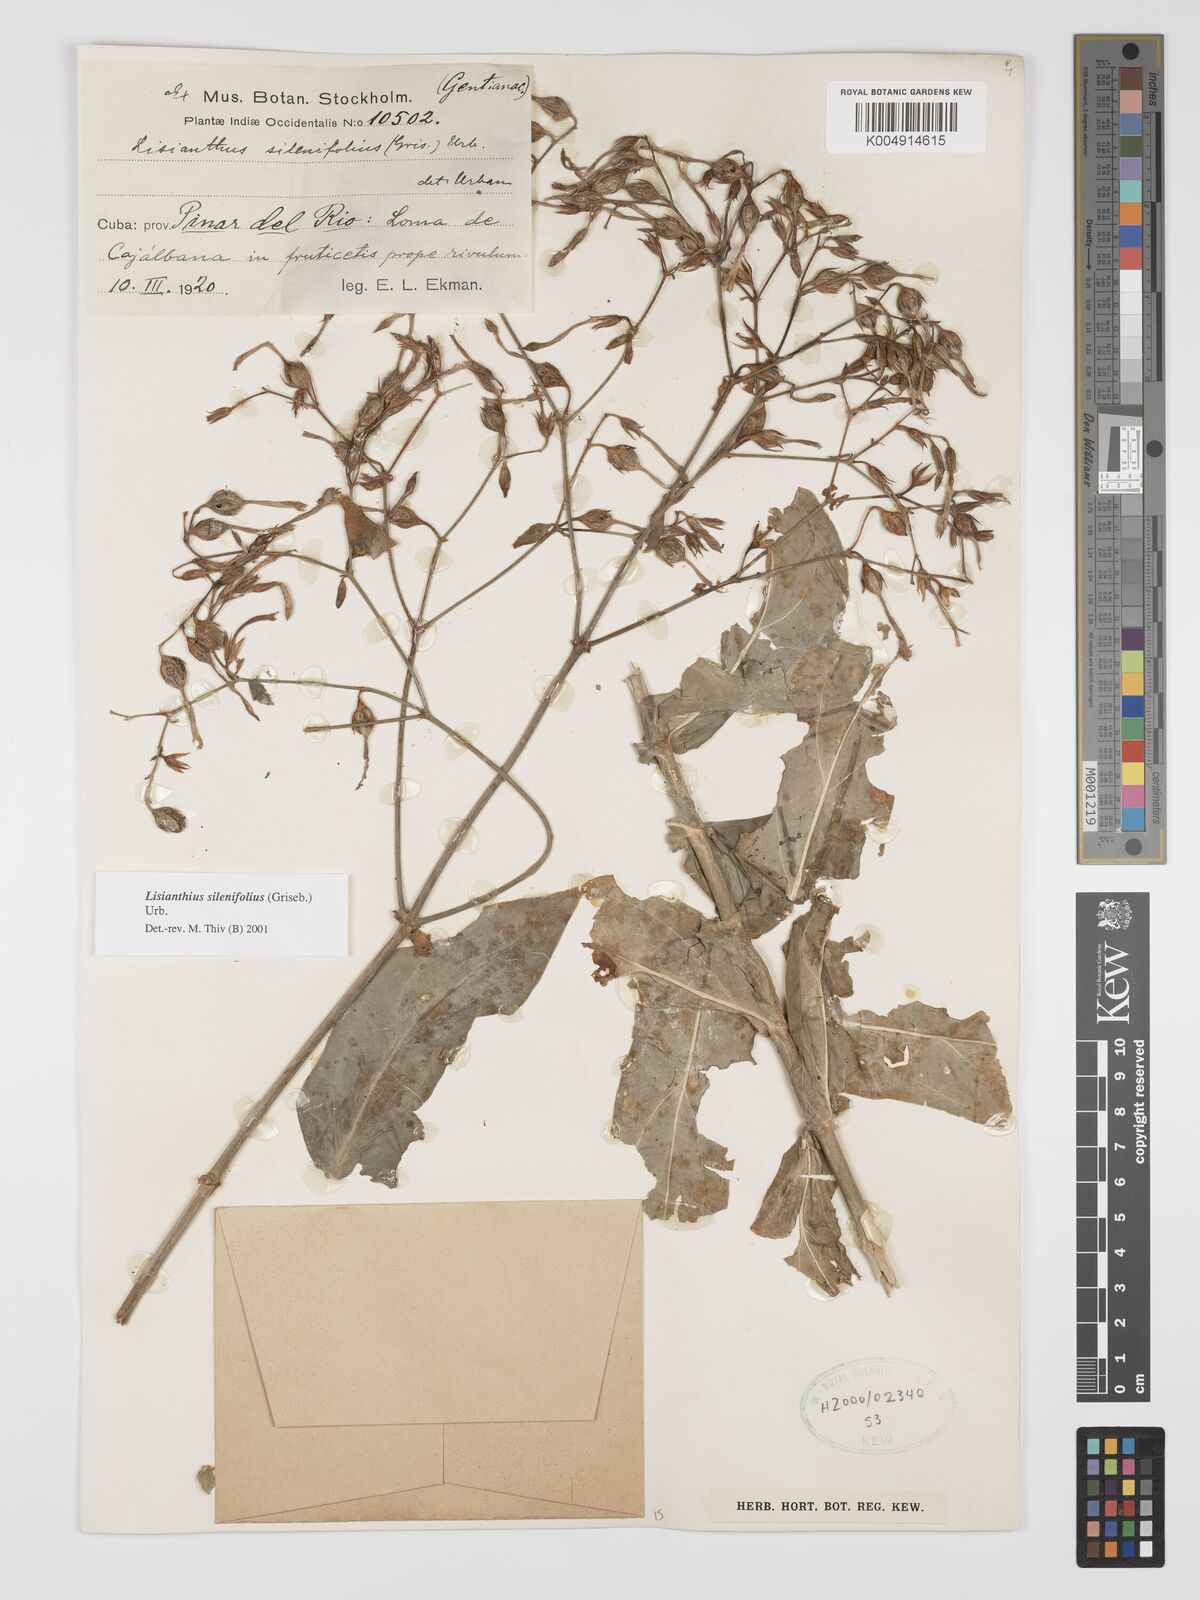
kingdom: Plantae
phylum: Tracheophyta
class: Magnoliopsida
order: Gentianales
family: Gentianaceae
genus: Lisianthus
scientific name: Lisianthus silenifolius
